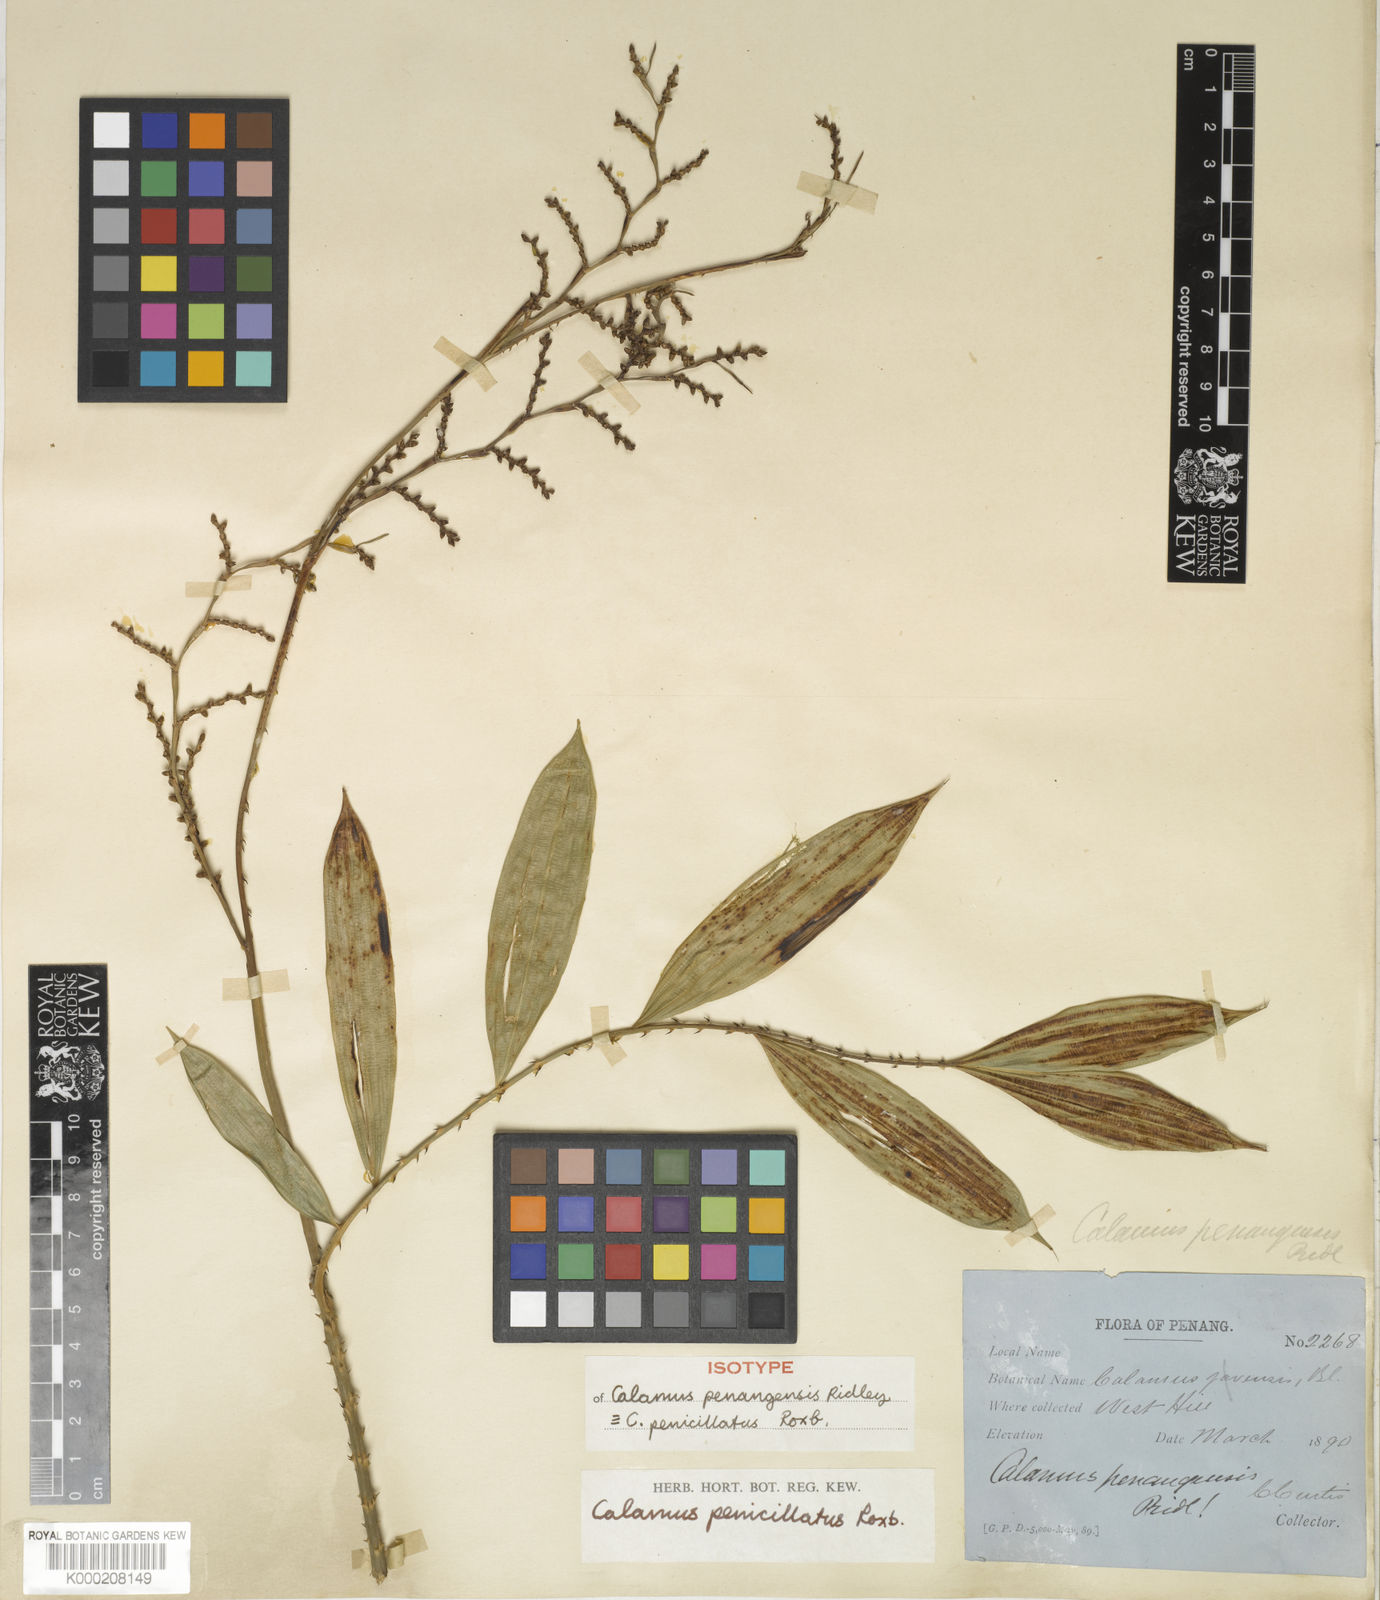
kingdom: Plantae
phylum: Tracheophyta
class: Liliopsida
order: Arecales
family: Arecaceae
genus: Calamus
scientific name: Calamus penicillatus
